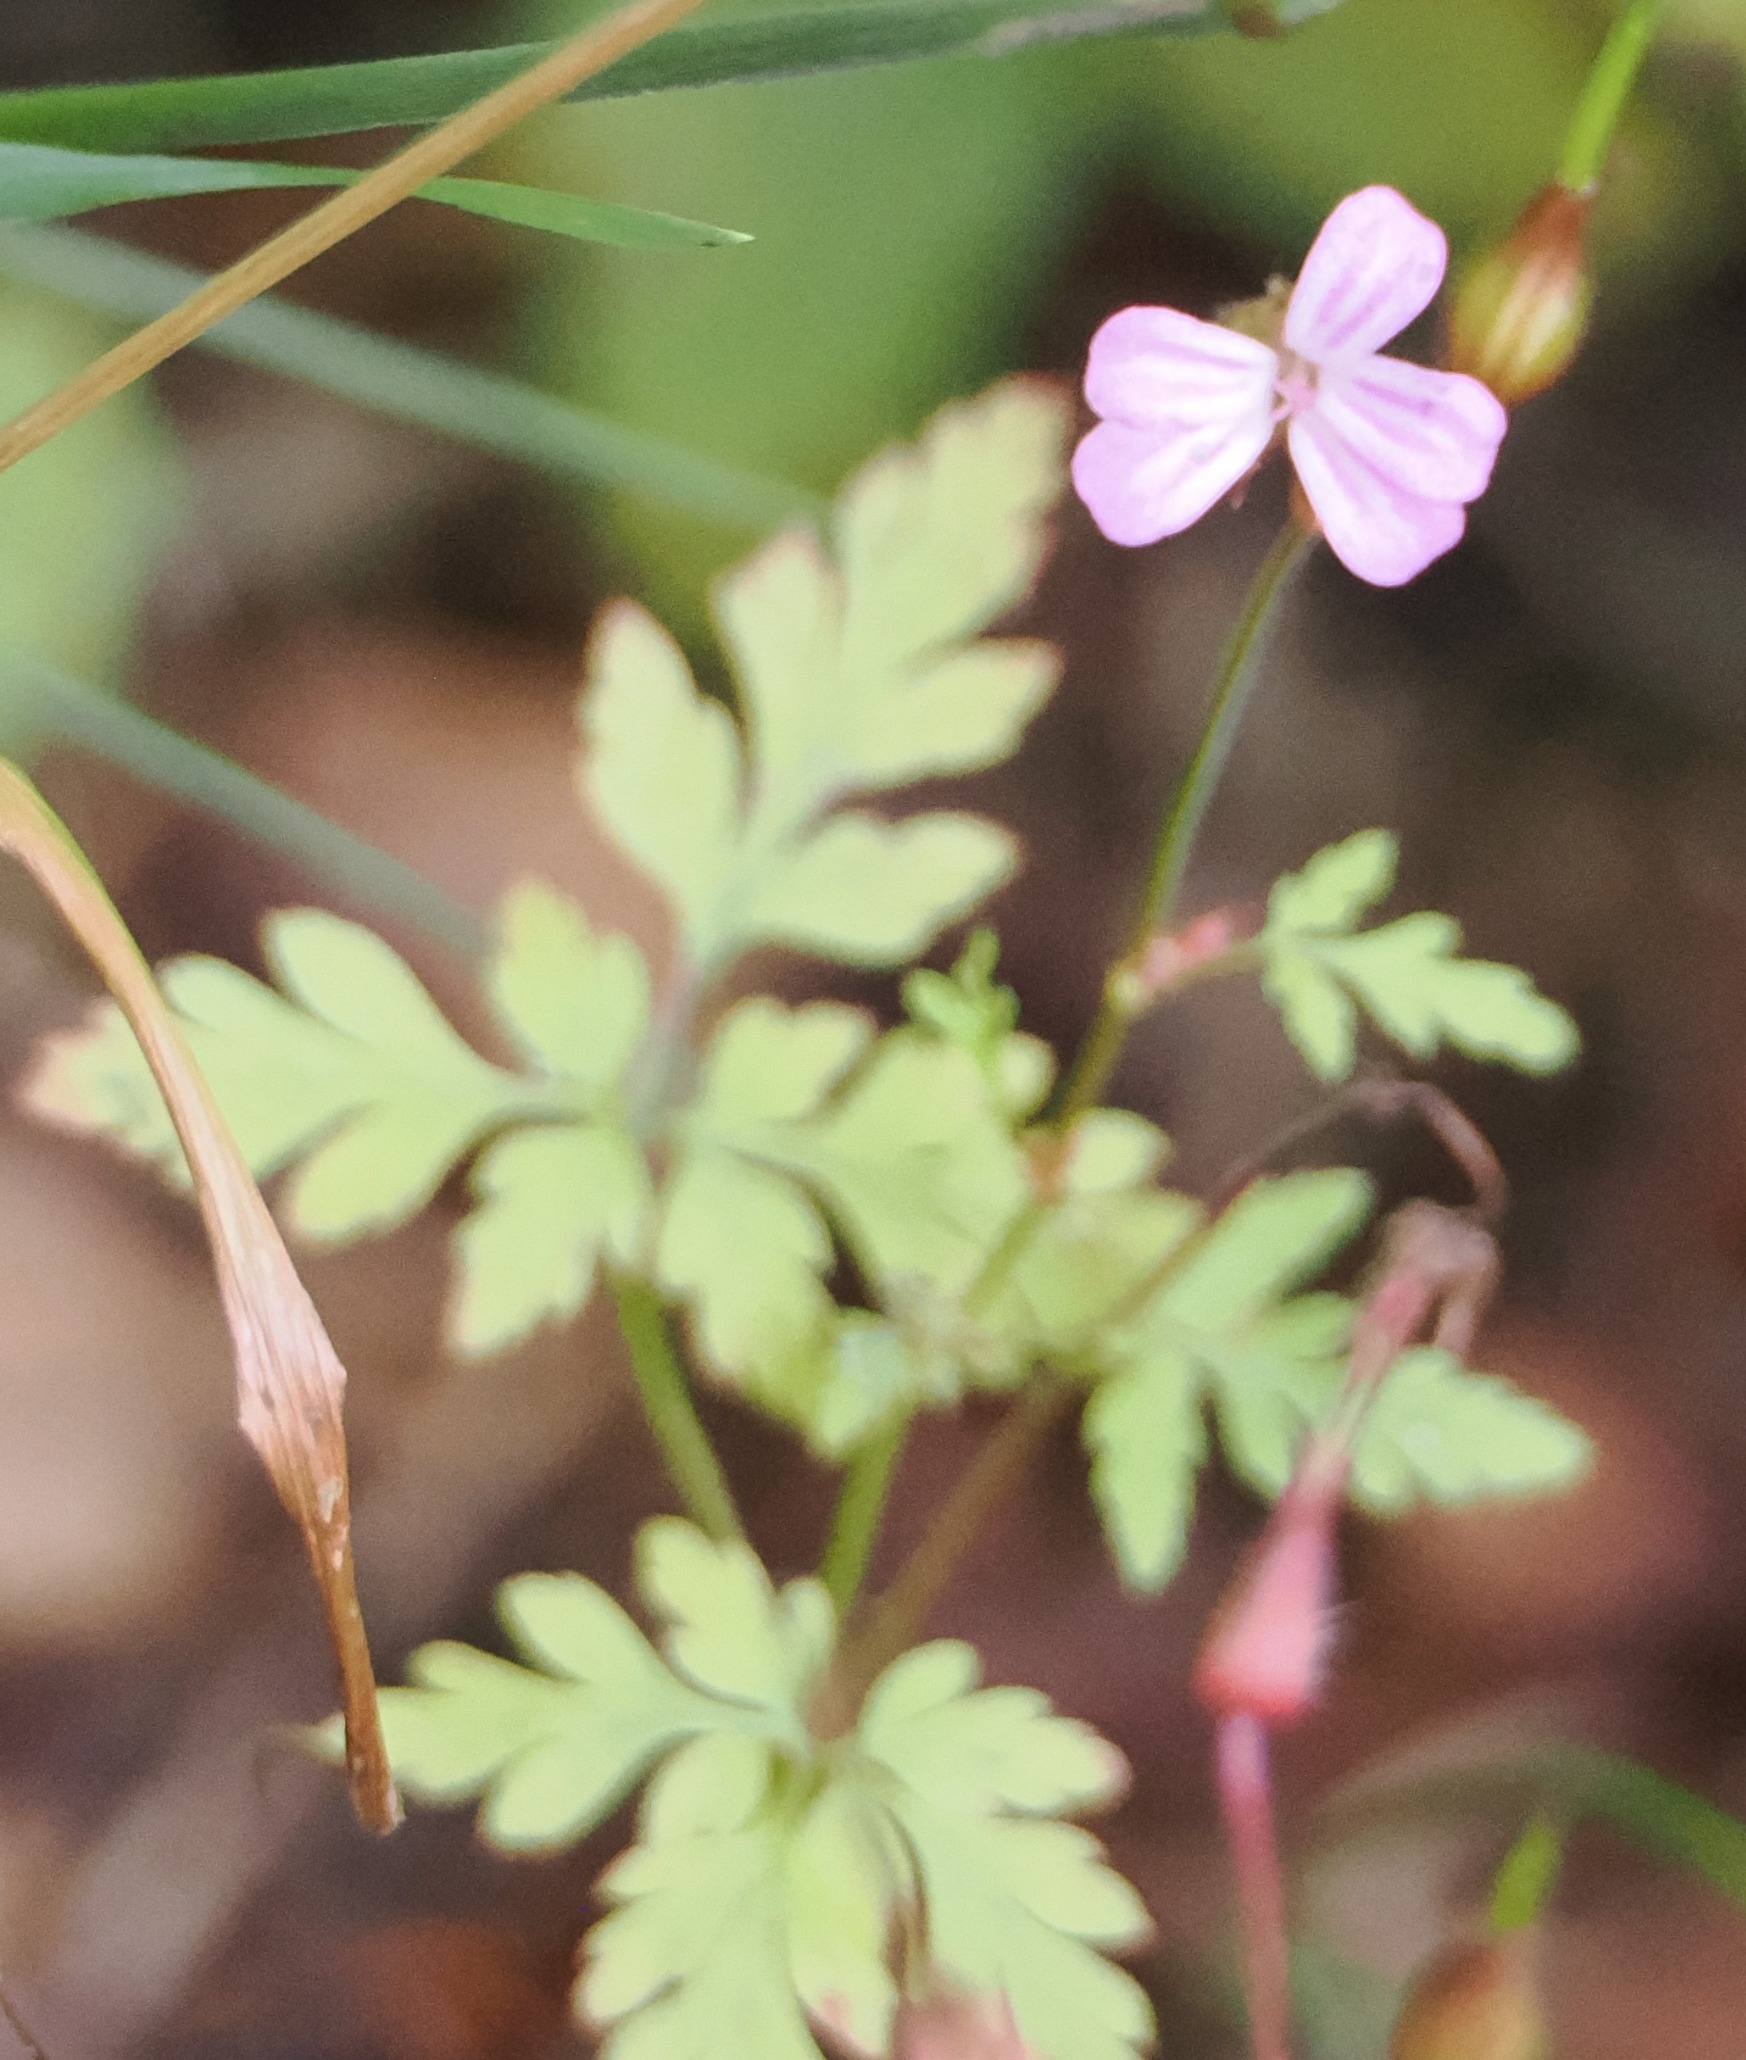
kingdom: Plantae
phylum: Tracheophyta
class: Magnoliopsida
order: Geraniales
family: Geraniaceae
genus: Geranium
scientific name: Geranium robertianum
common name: Stinkende storkenæb
